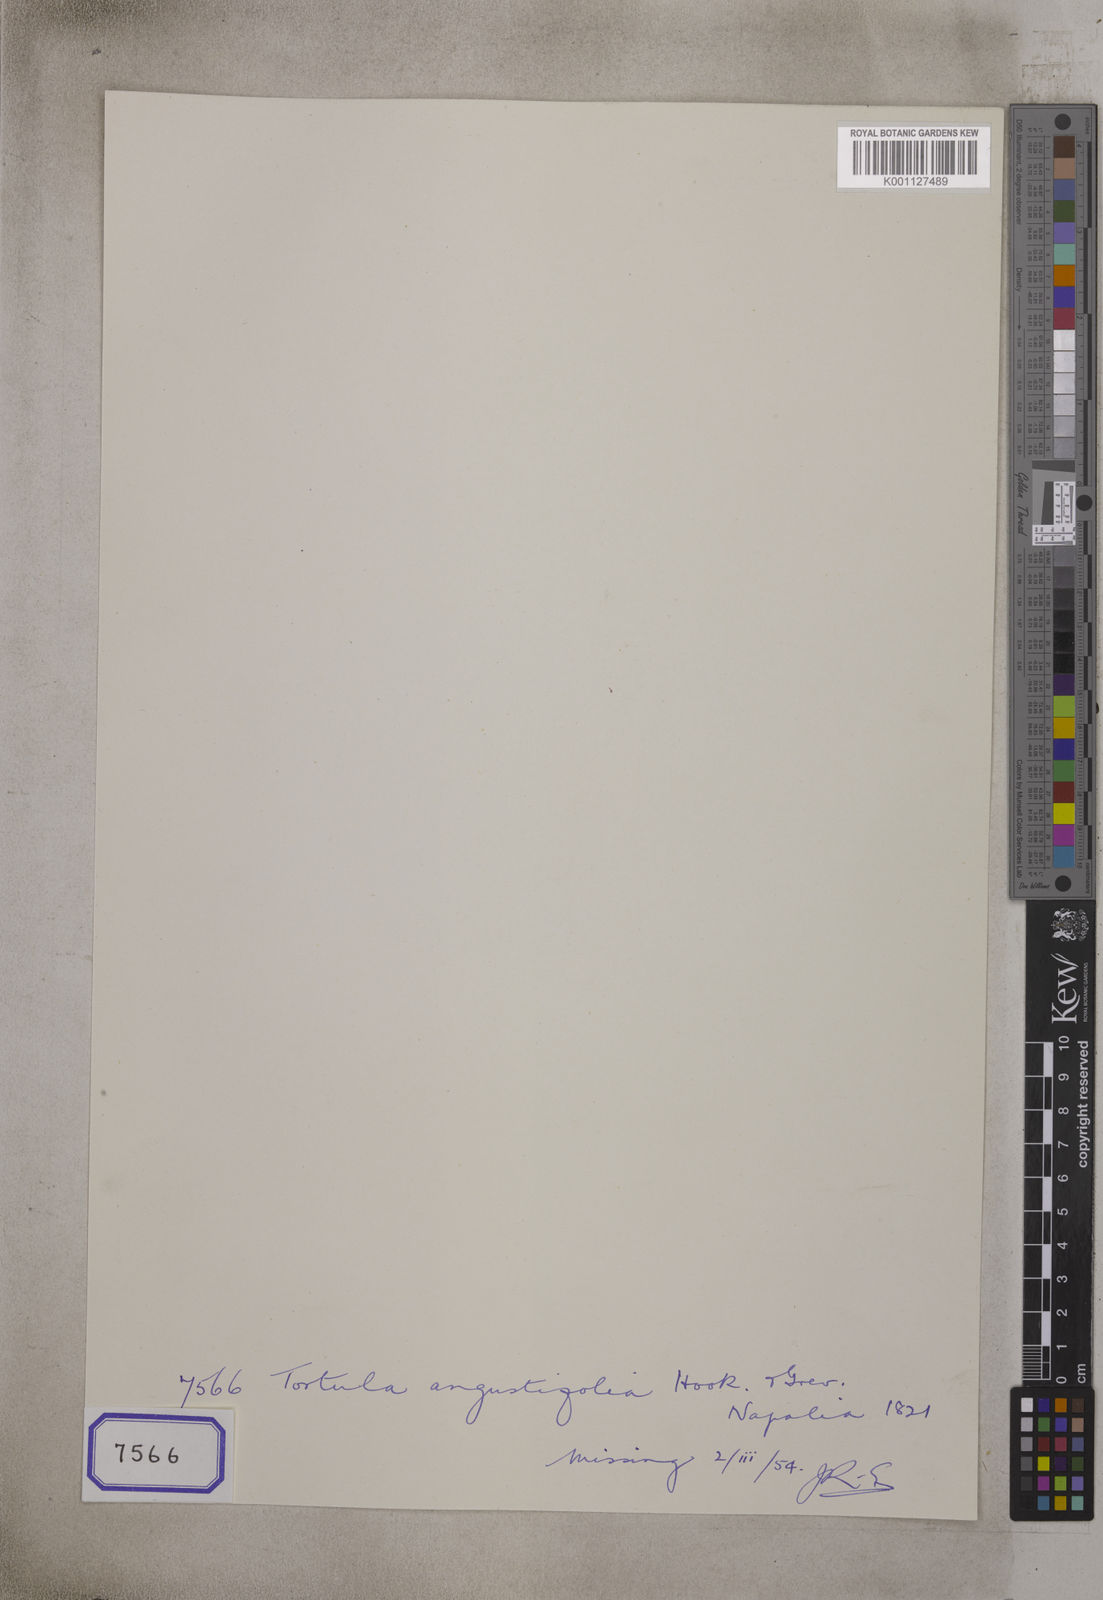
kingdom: Plantae
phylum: Bryophyta
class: Bryopsida
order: Hypnales
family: Meteoriaceae
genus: Tortula
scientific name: Tortula
